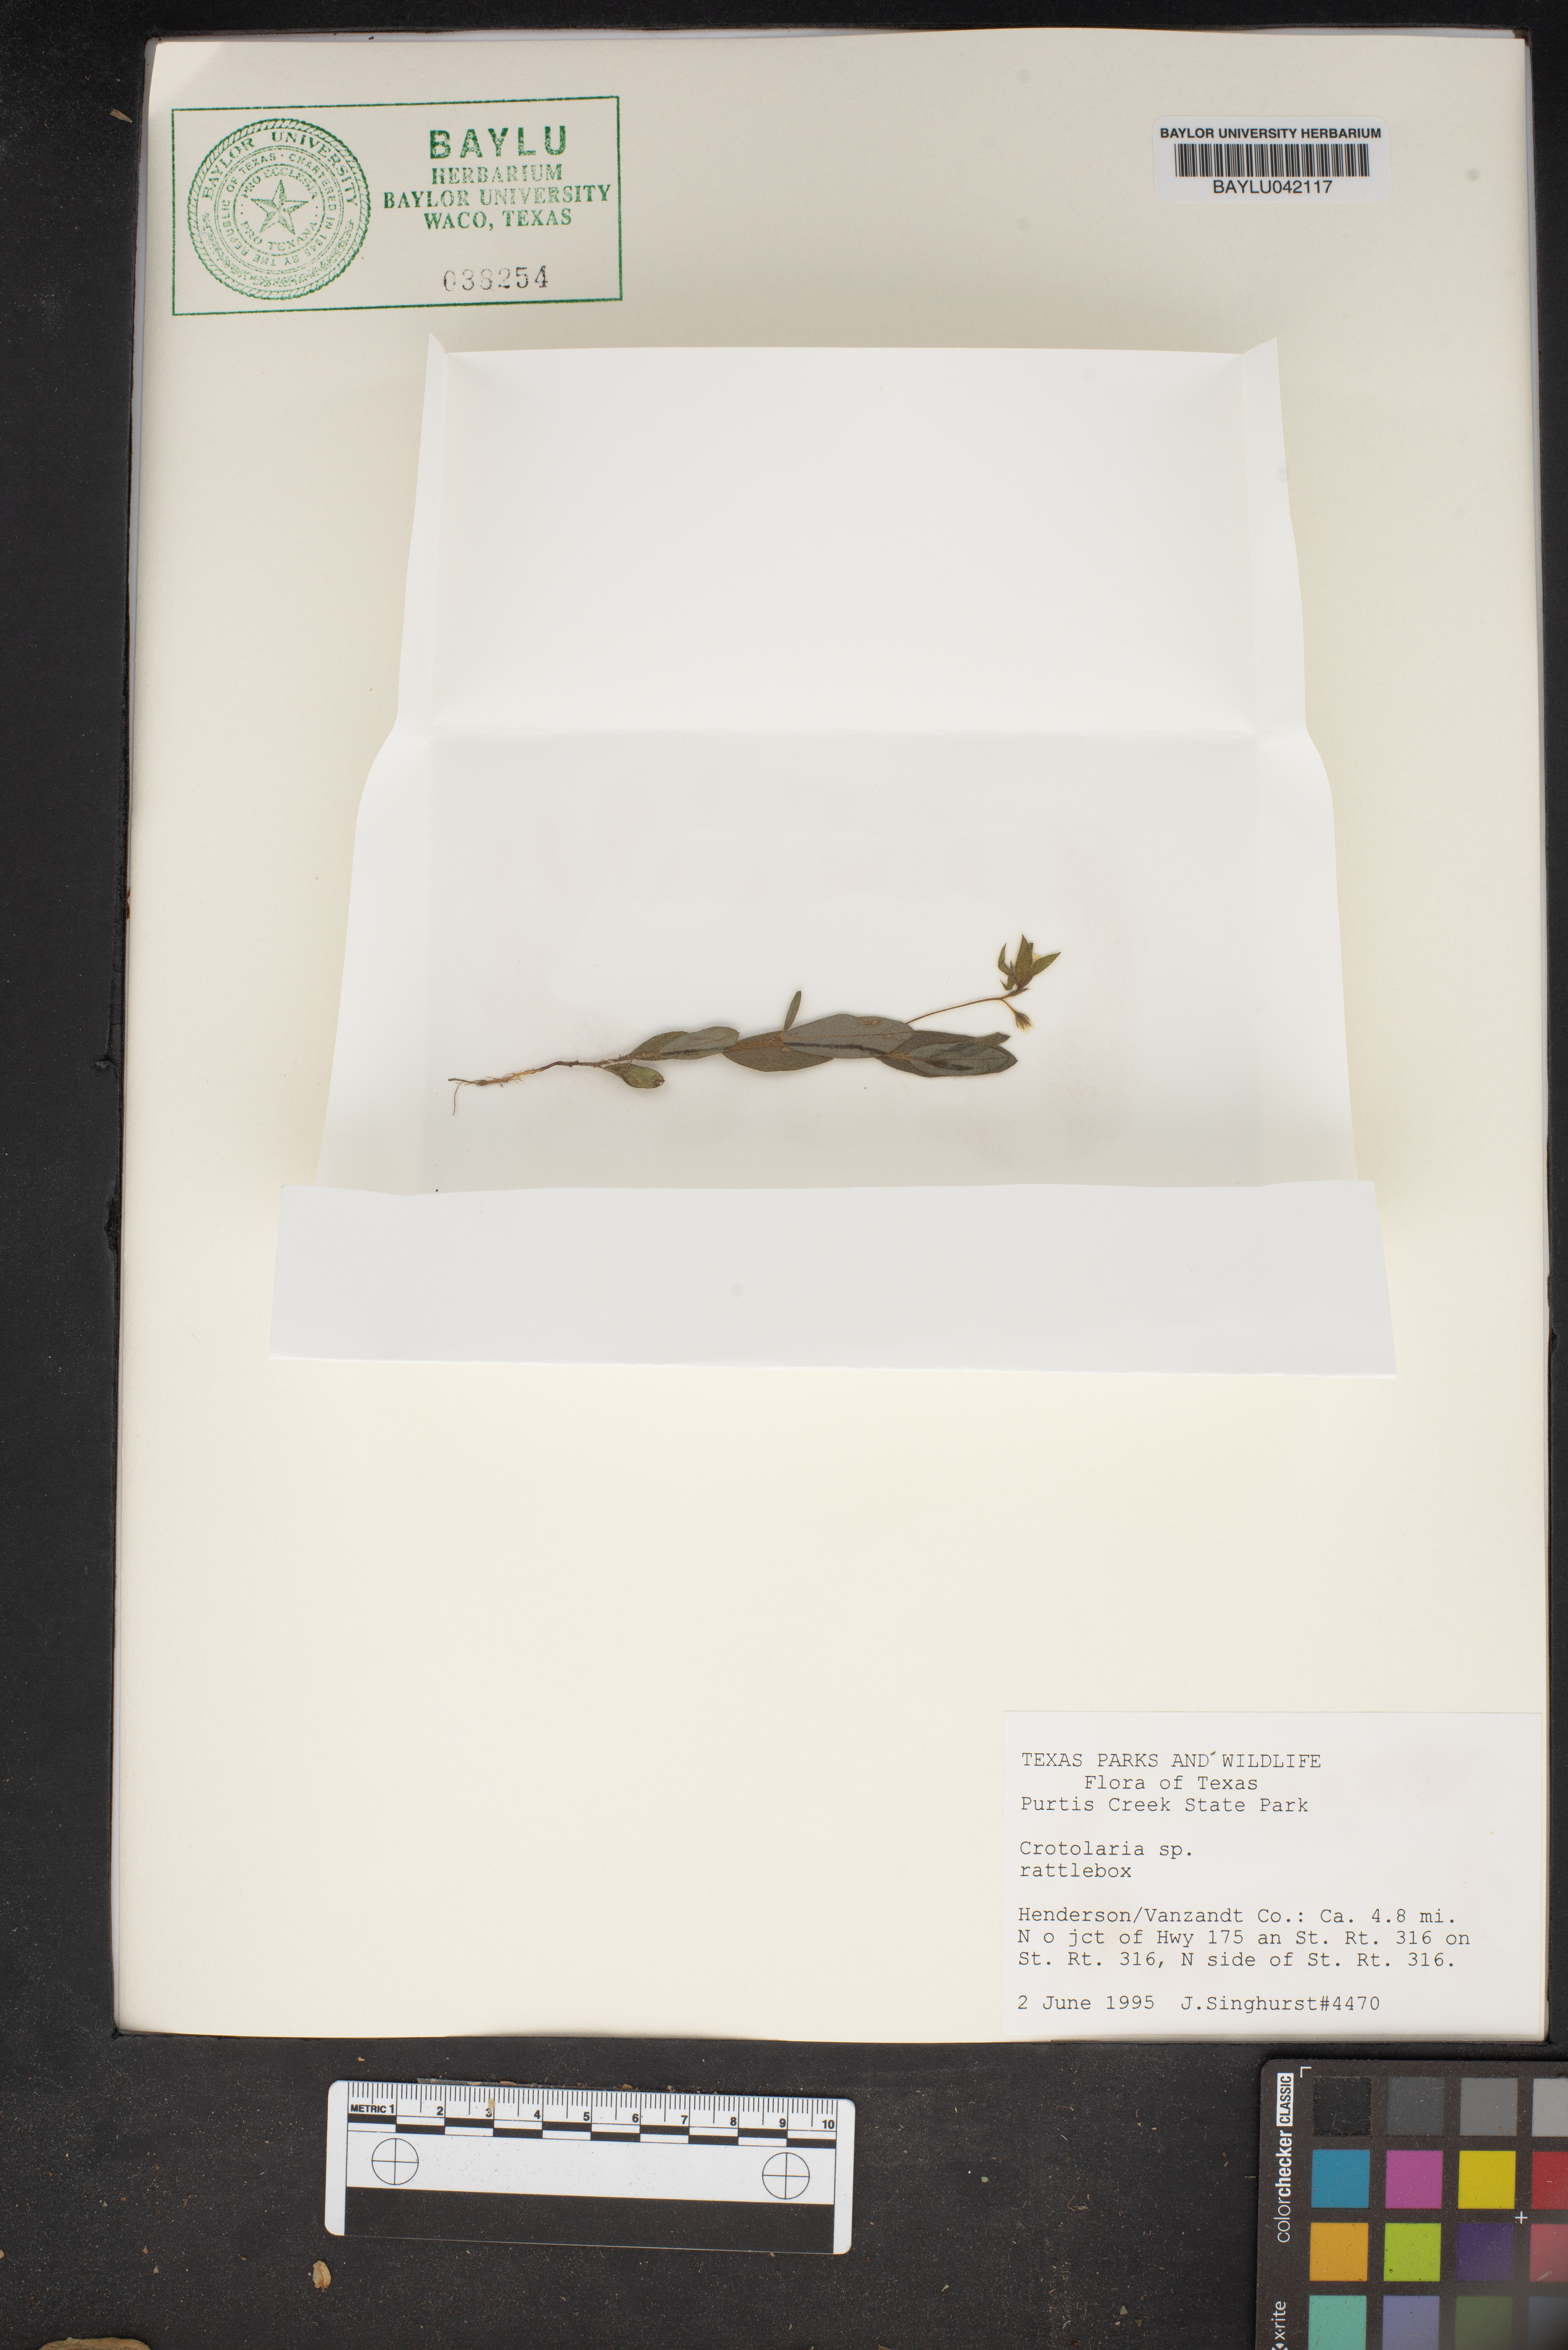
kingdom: Plantae
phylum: Tracheophyta
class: Magnoliopsida
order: Fabales
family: Fabaceae
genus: Crotolaria
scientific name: Crotolaria
